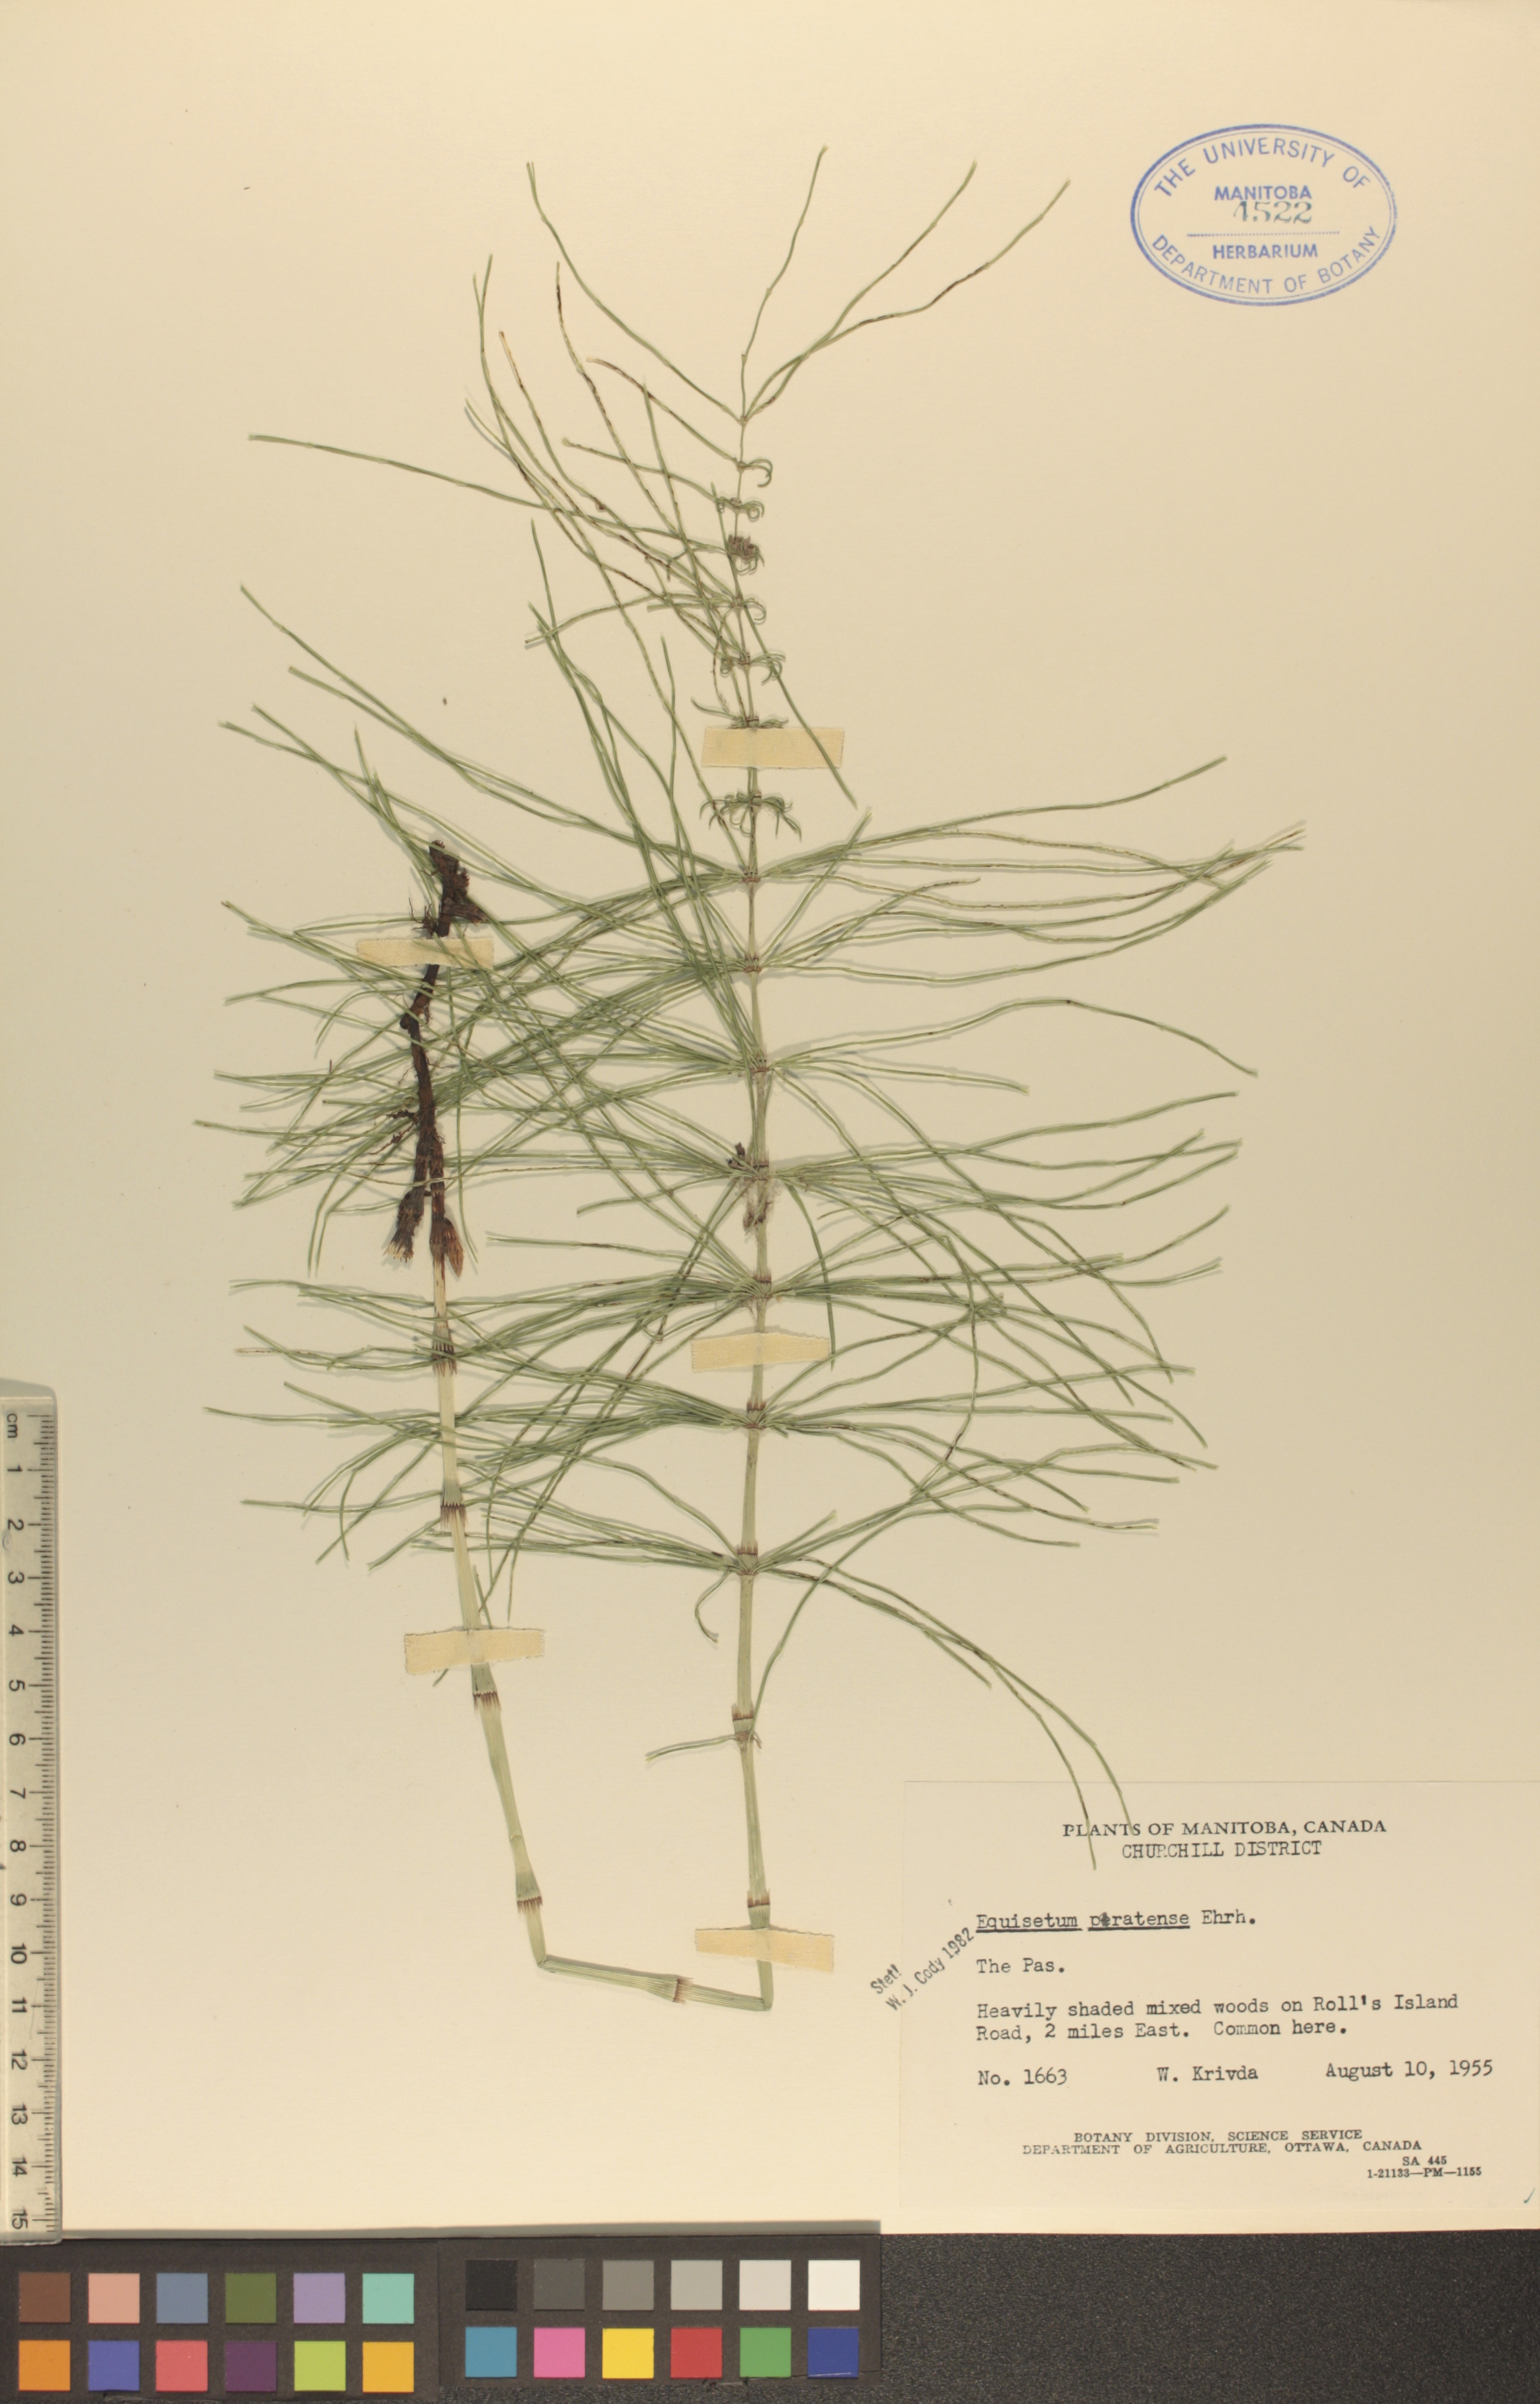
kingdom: Plantae
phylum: Tracheophyta
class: Polypodiopsida
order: Equisetales
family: Equisetaceae
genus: Equisetum
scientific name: Equisetum pratense
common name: Meadow horsetail
